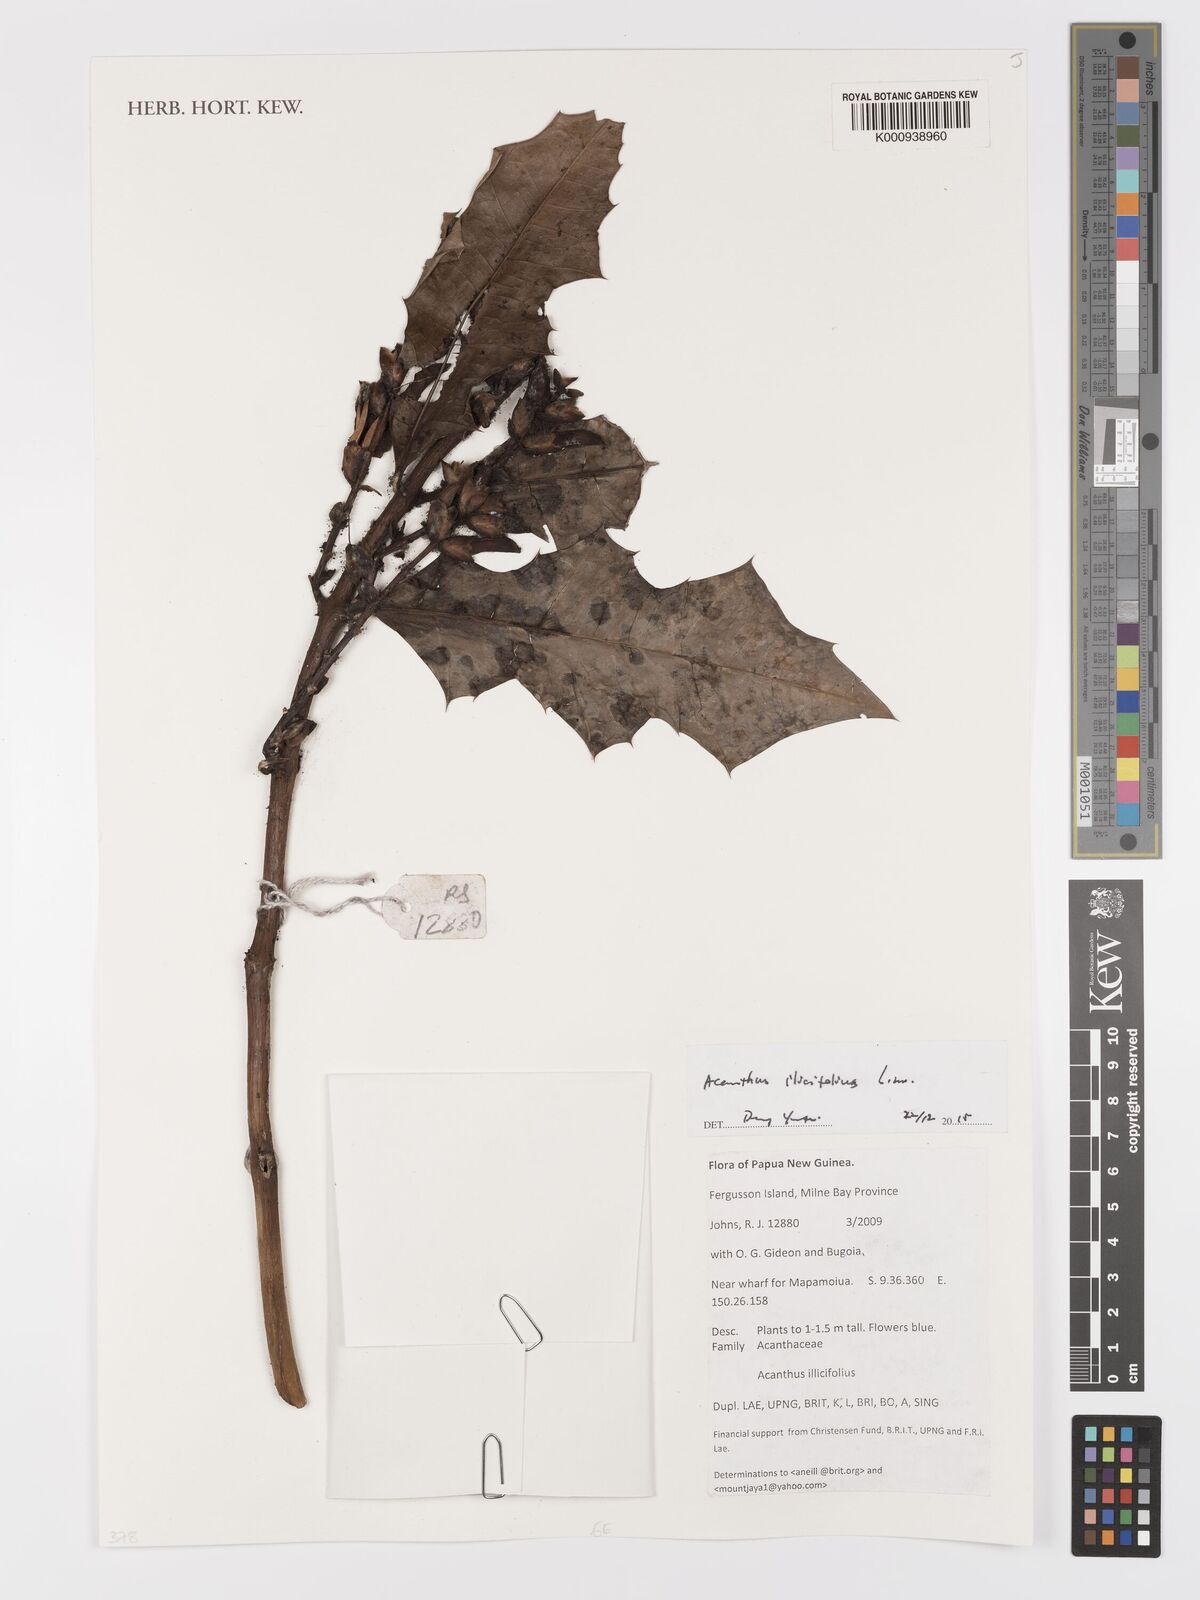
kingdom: Plantae
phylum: Tracheophyta
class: Magnoliopsida
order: Lamiales
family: Acanthaceae
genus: Acanthus
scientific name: Acanthus ilicifolius
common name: Holy mangrove
